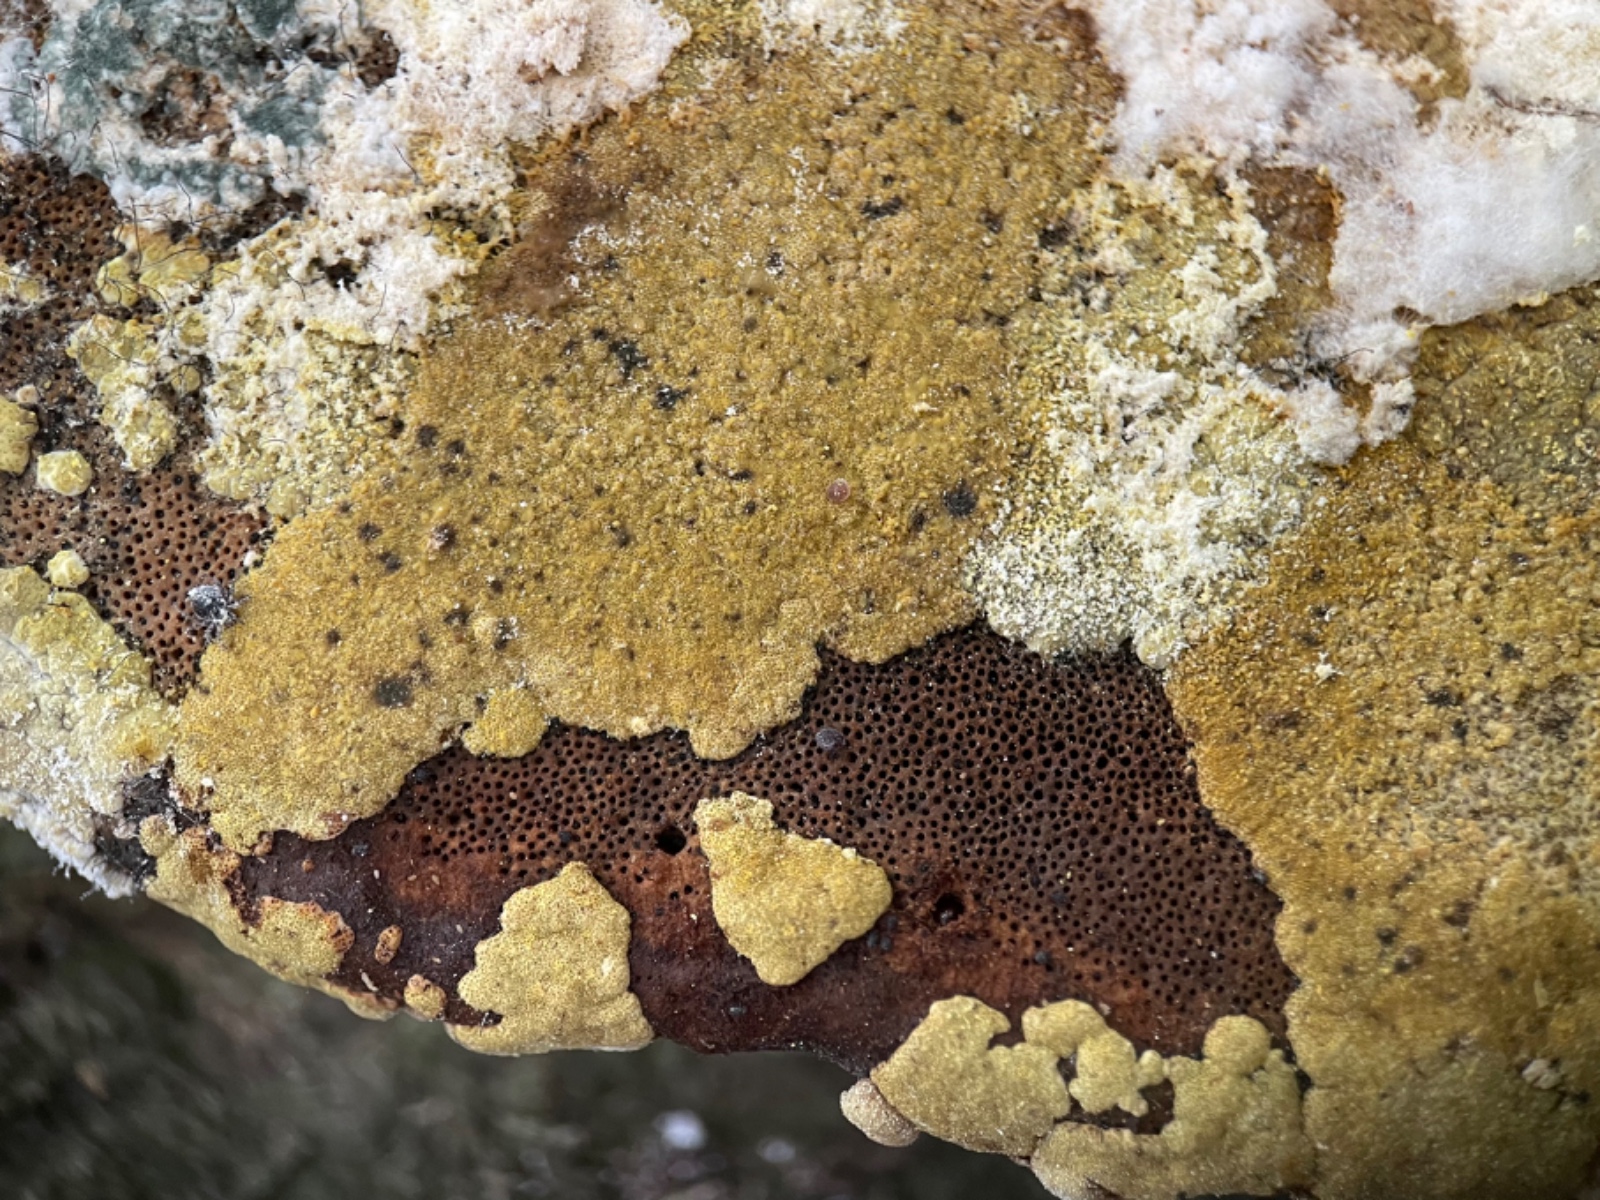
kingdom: Fungi
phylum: Ascomycota
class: Sordariomycetes
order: Hypocreales
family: Hypocreaceae
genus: Trichoderma
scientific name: Trichoderma
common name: kødkerne
